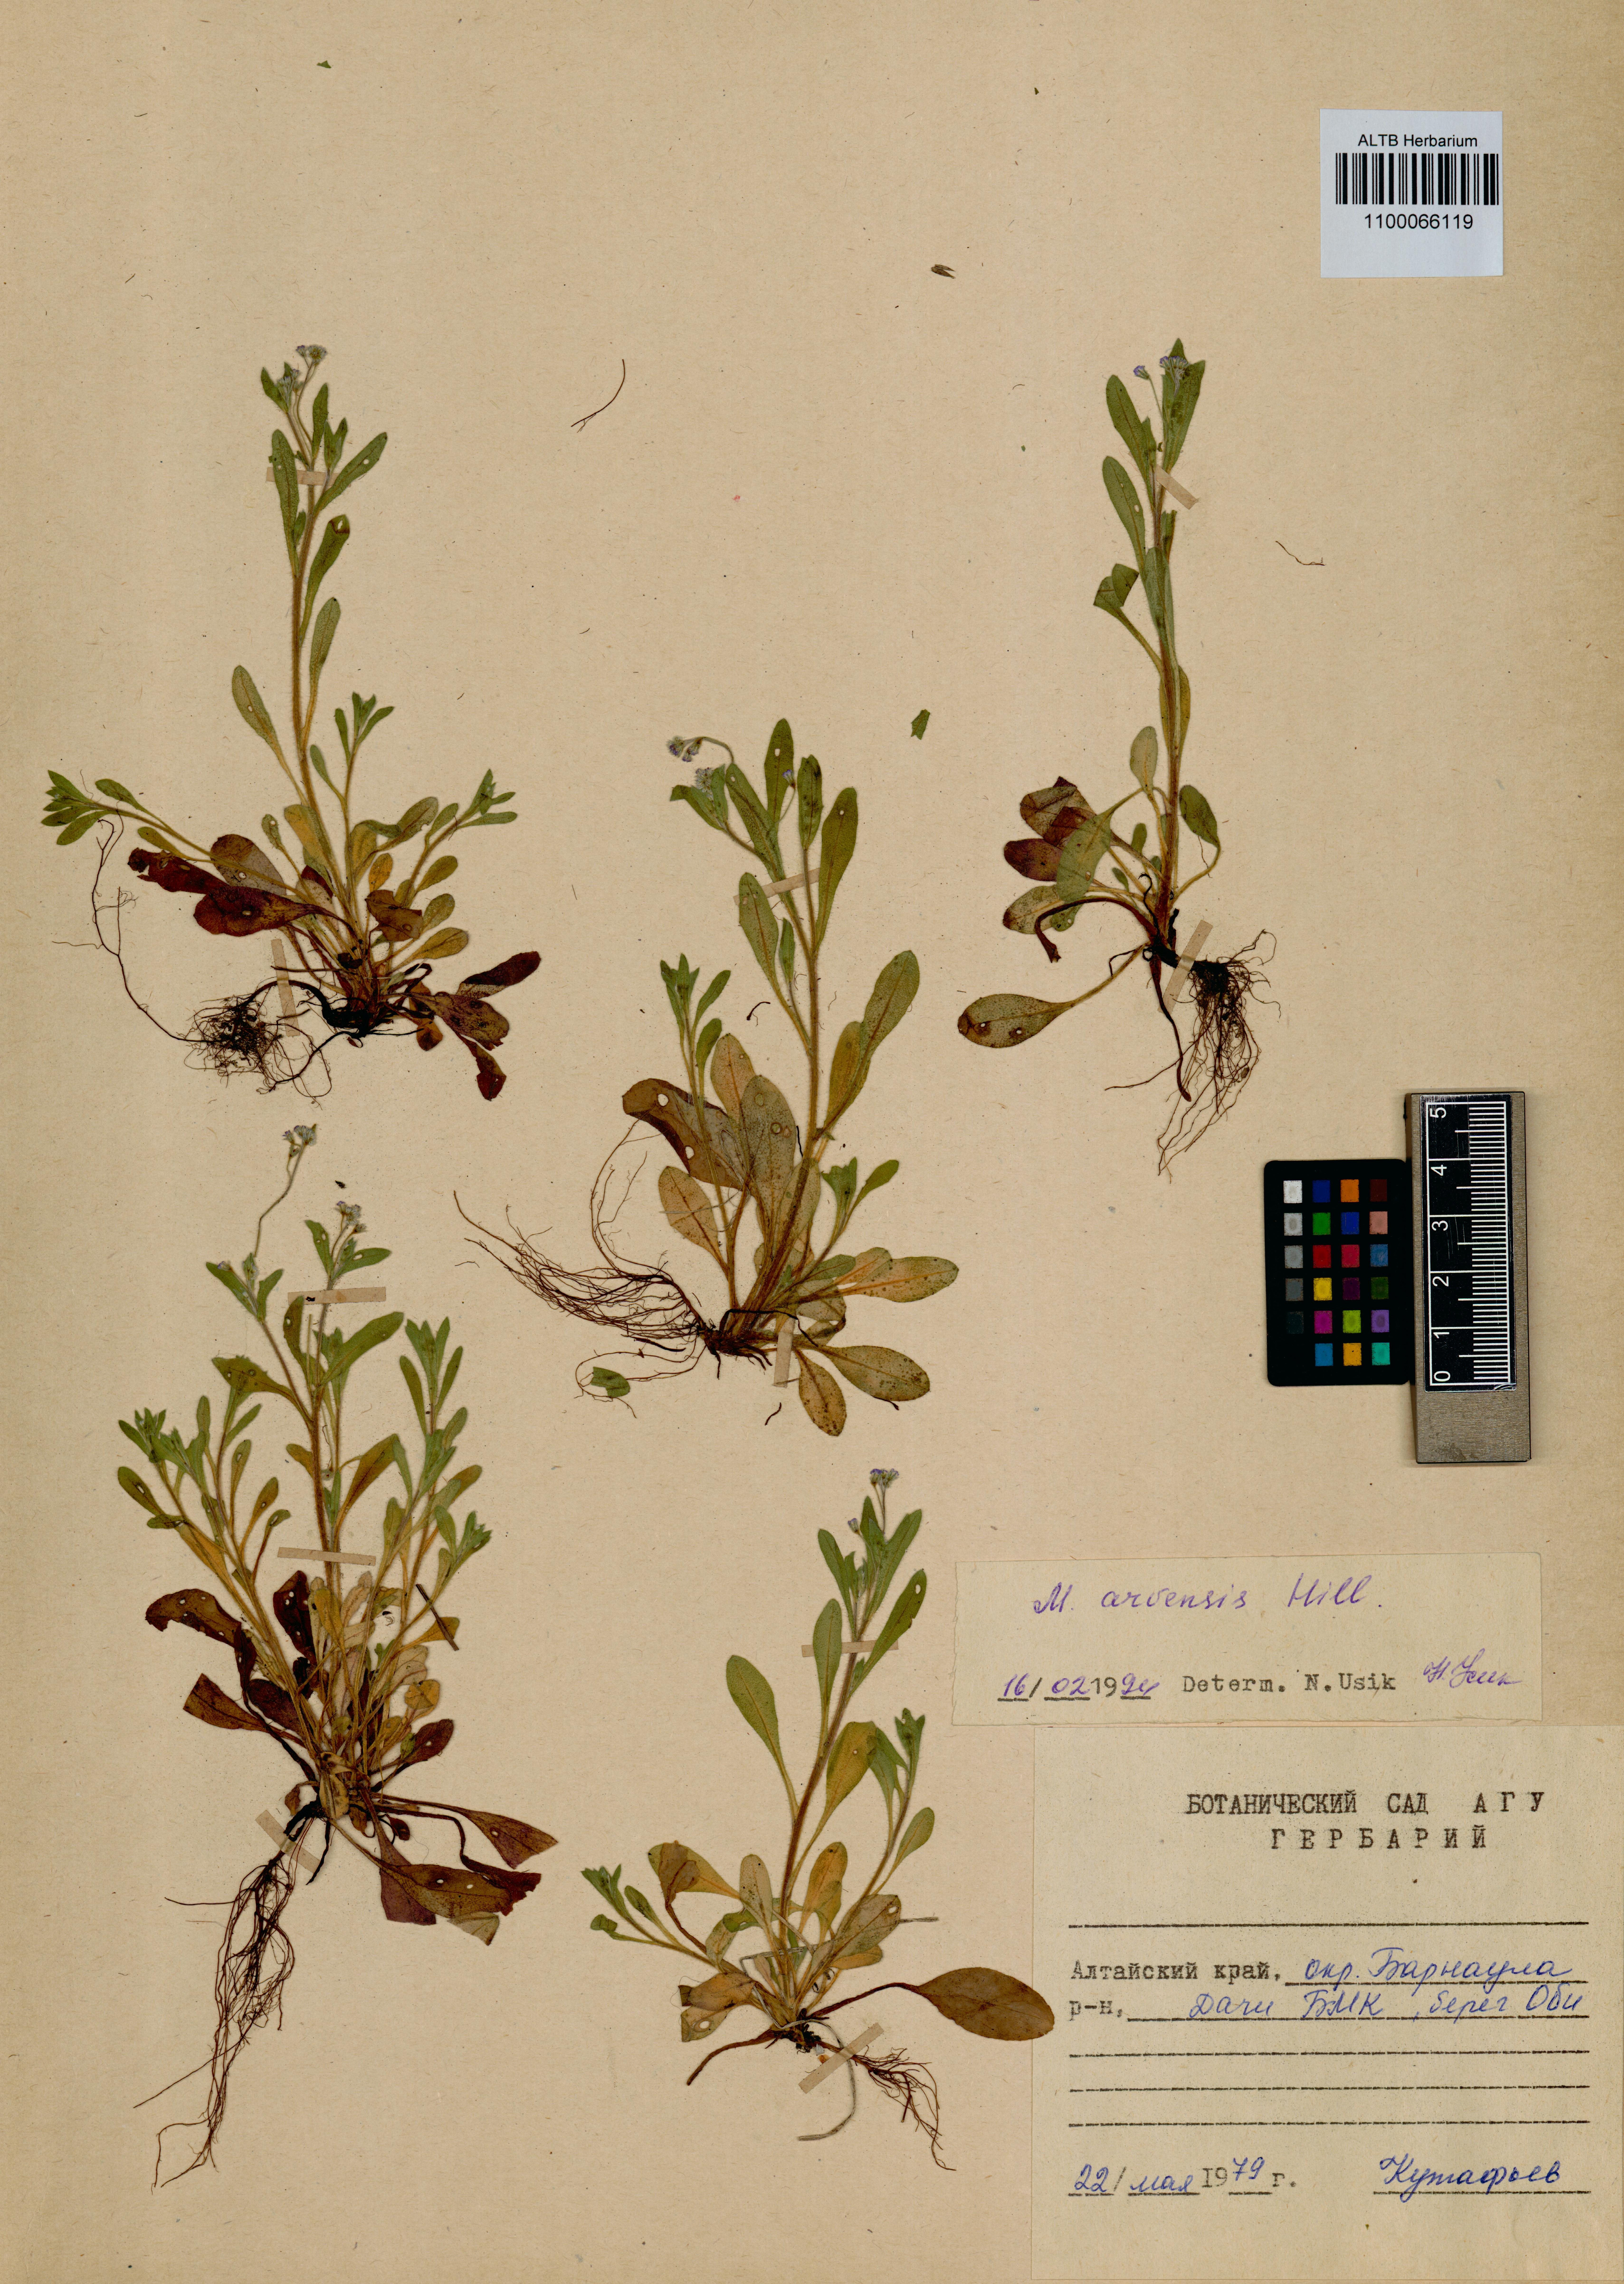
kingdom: Plantae
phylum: Tracheophyta
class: Magnoliopsida
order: Boraginales
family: Boraginaceae
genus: Myosotis
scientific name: Myosotis arvensis
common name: Field forget-me-not
